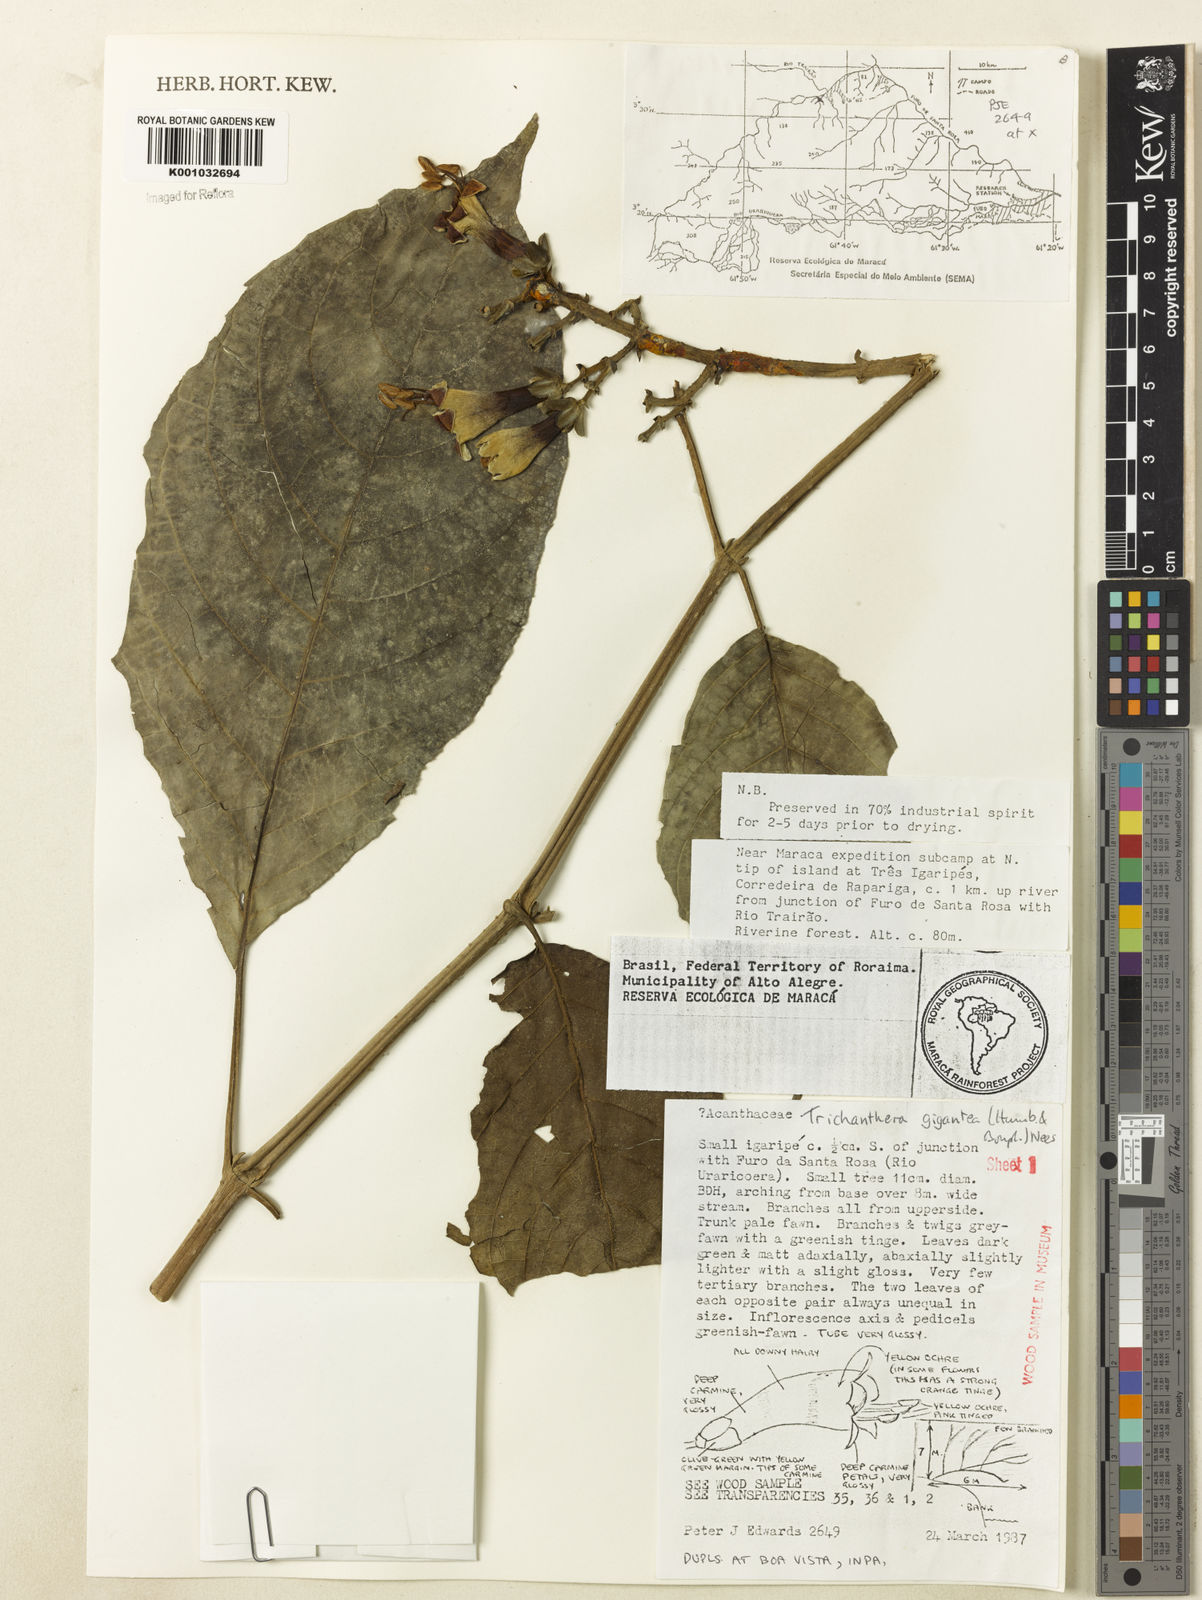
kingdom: Plantae
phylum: Tracheophyta
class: Magnoliopsida
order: Lamiales
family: Acanthaceae
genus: Trichanthera
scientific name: Trichanthera
